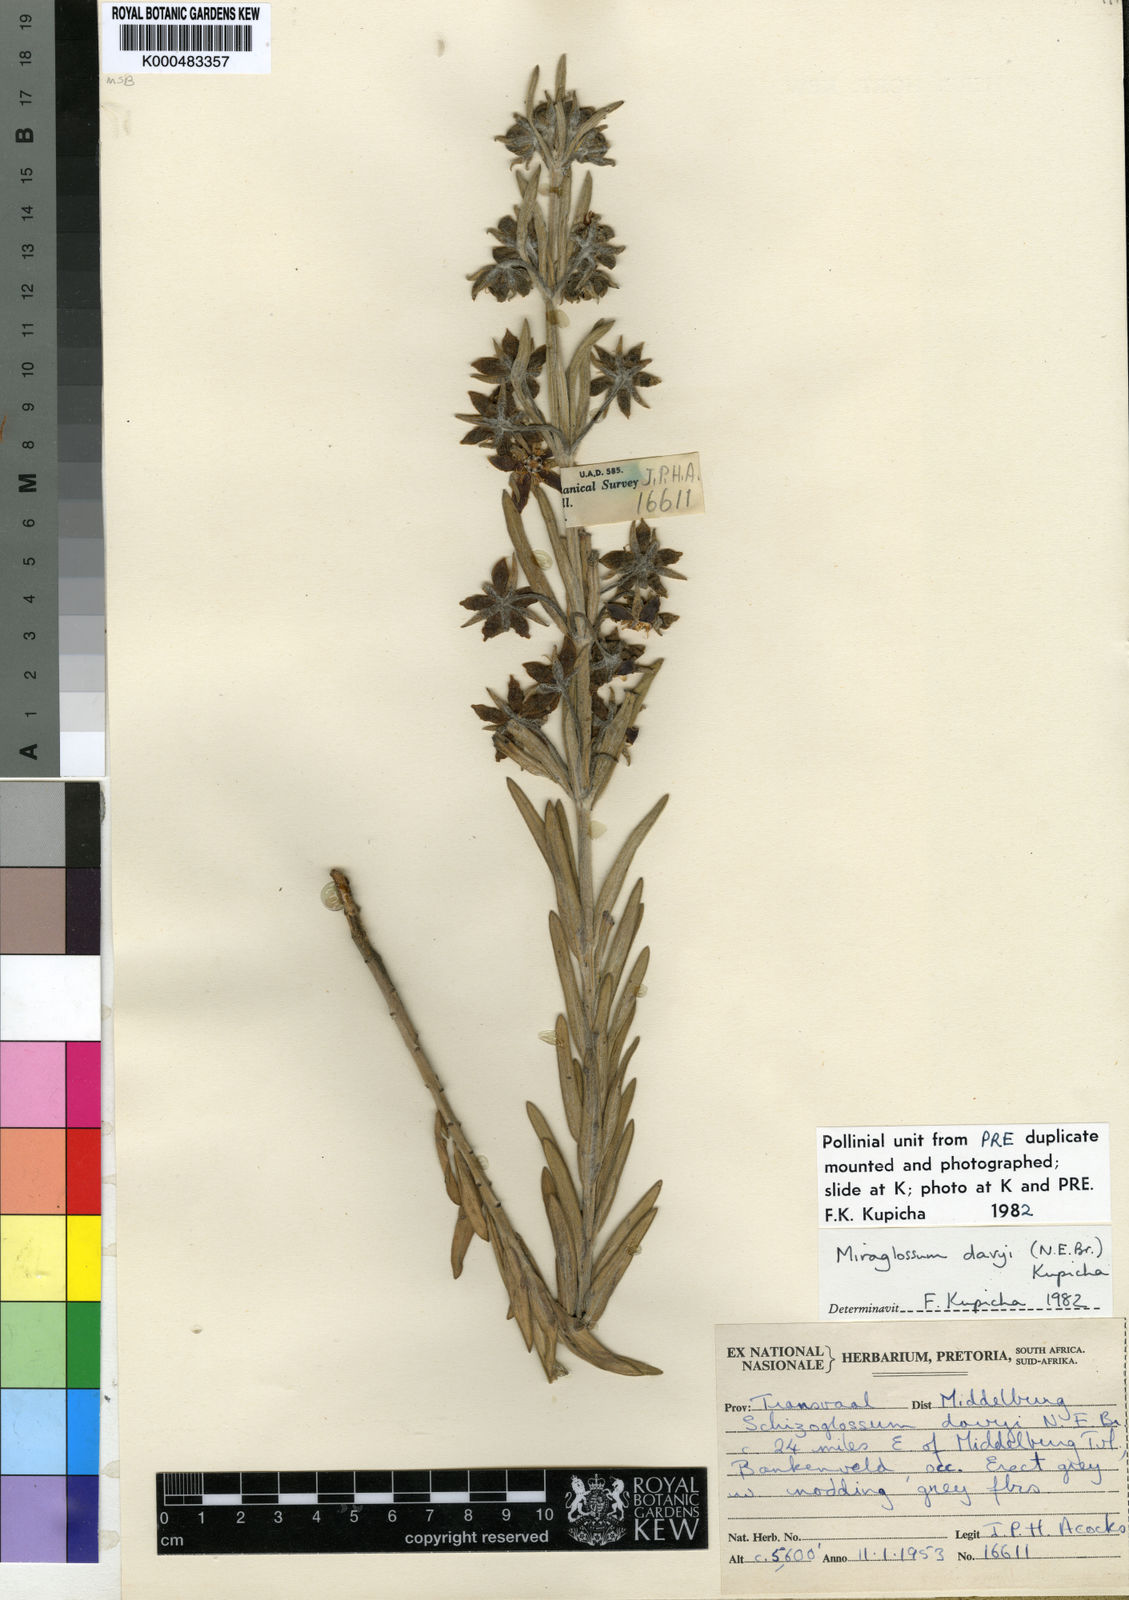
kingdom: Plantae
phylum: Tracheophyta
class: Magnoliopsida
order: Gentianales
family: Apocynaceae
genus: Miraglossum
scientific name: Miraglossum davyi
